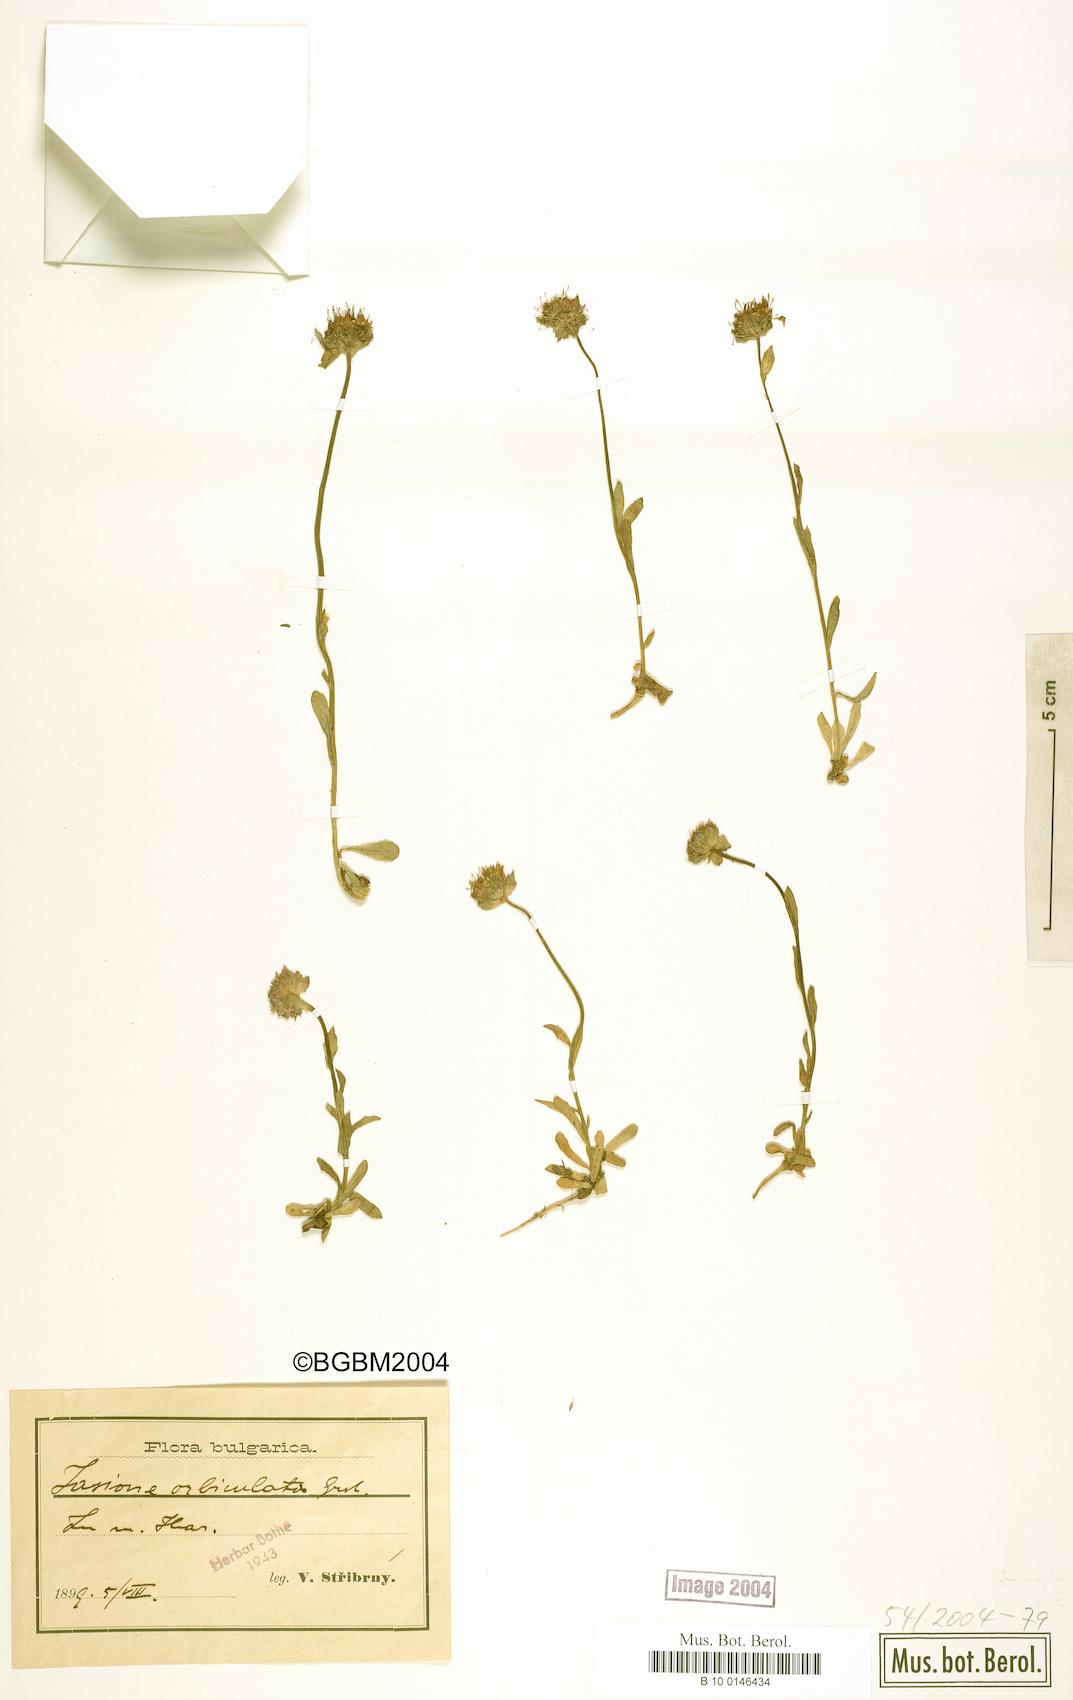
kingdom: Plantae
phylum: Tracheophyta
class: Magnoliopsida
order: Asterales
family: Campanulaceae
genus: Jasione
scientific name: Jasione orbiculata
